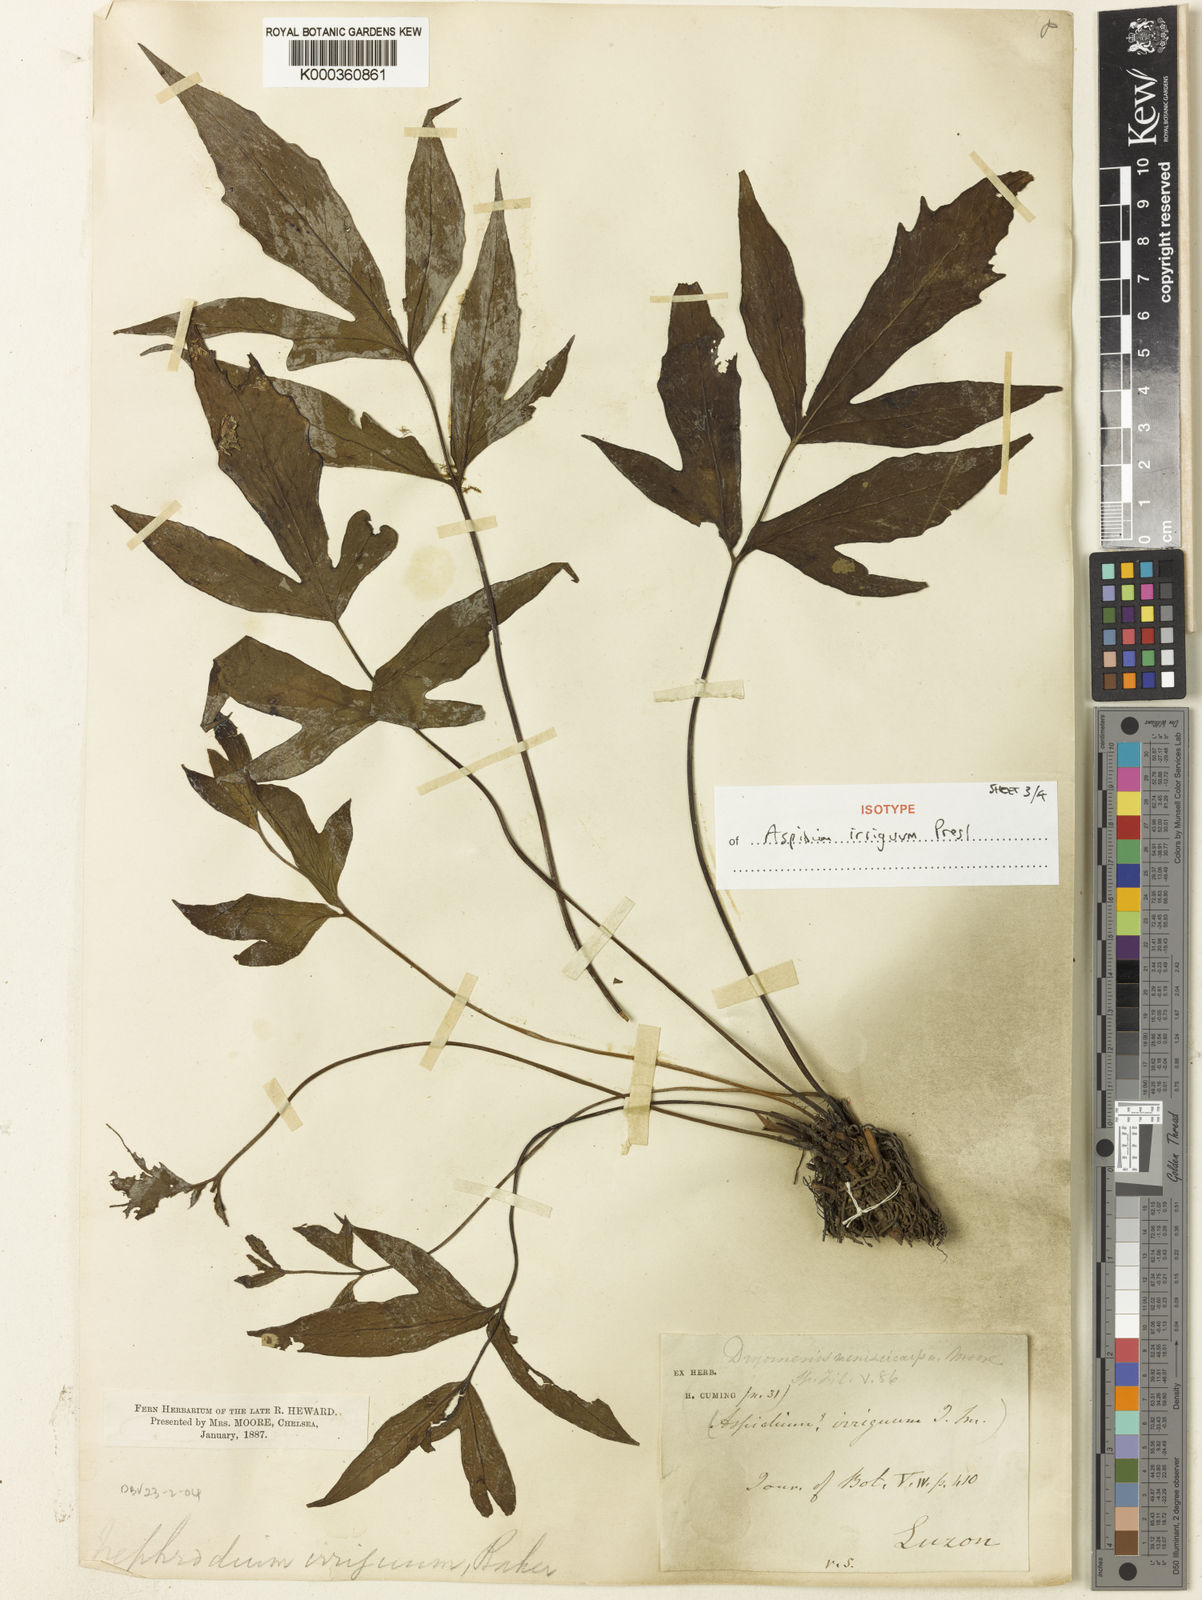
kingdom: Plantae
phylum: Tracheophyta
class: Polypodiopsida
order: Polypodiales
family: Tectariaceae
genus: Tectaria
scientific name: Tectaria
